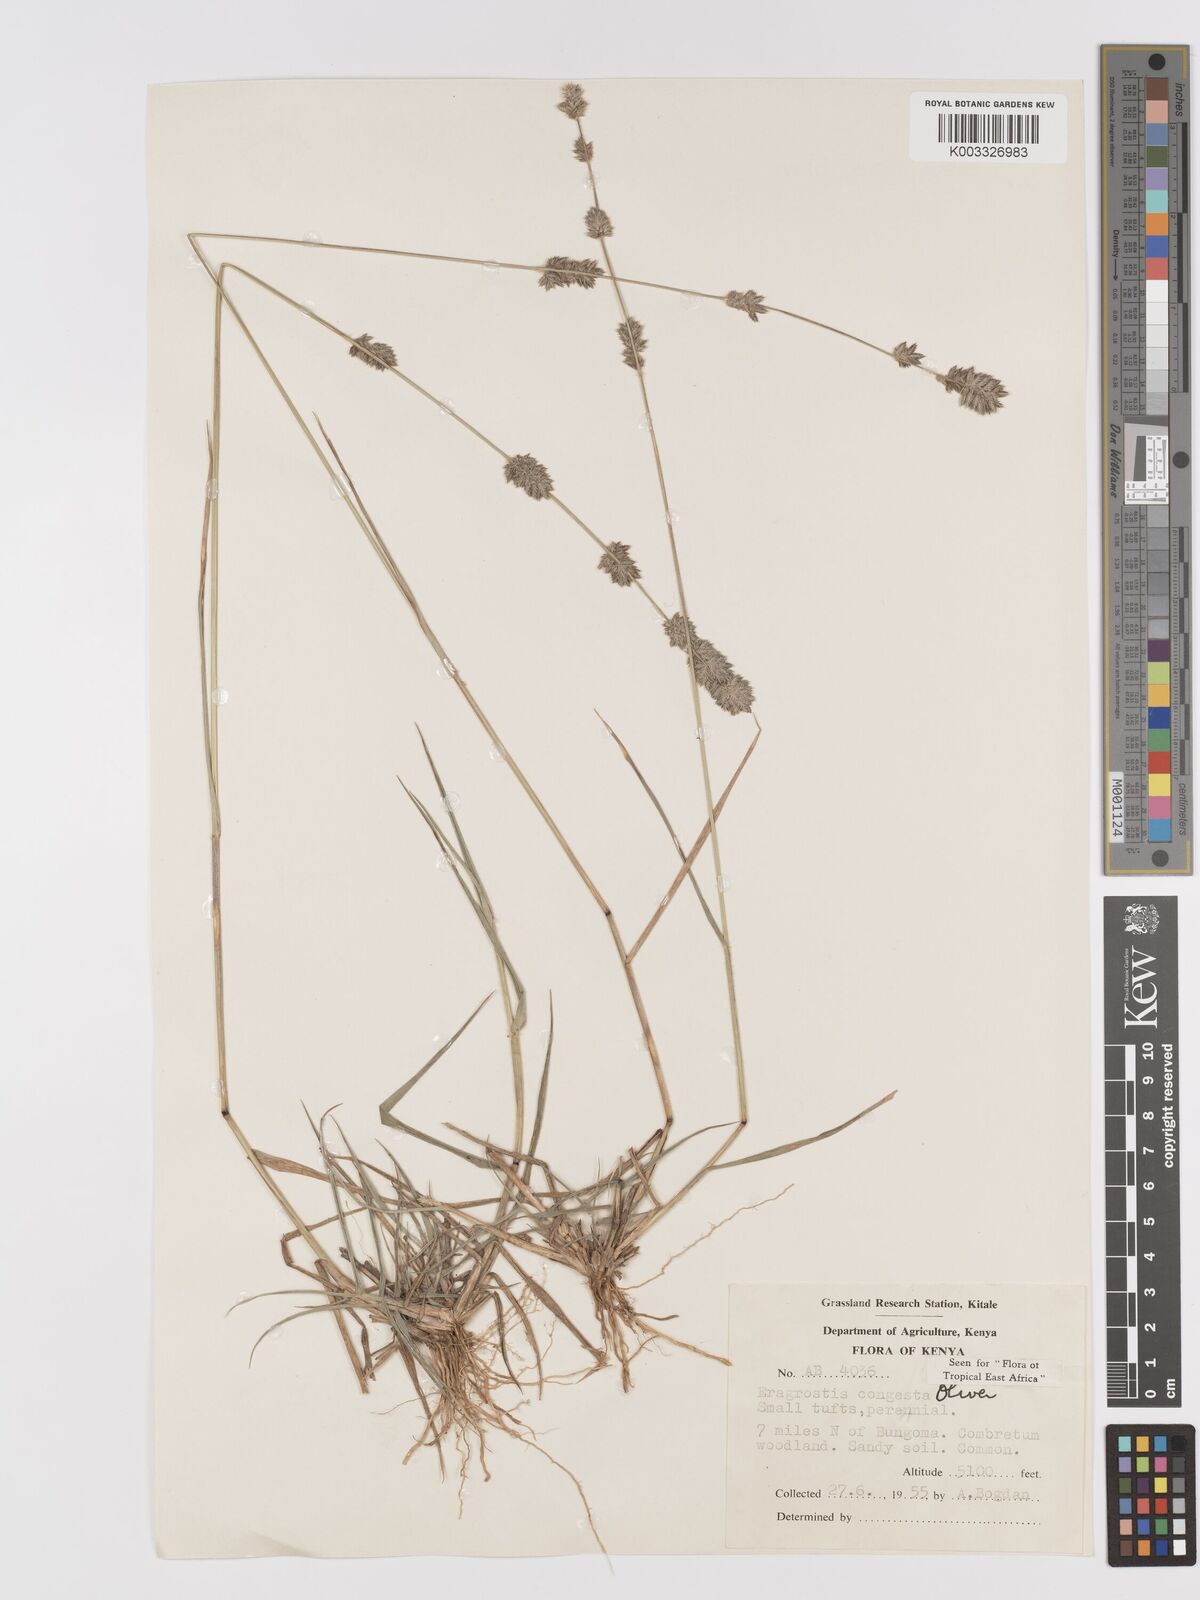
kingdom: Plantae
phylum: Tracheophyta
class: Liliopsida
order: Poales
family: Poaceae
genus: Eragrostis
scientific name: Eragrostis congesta
